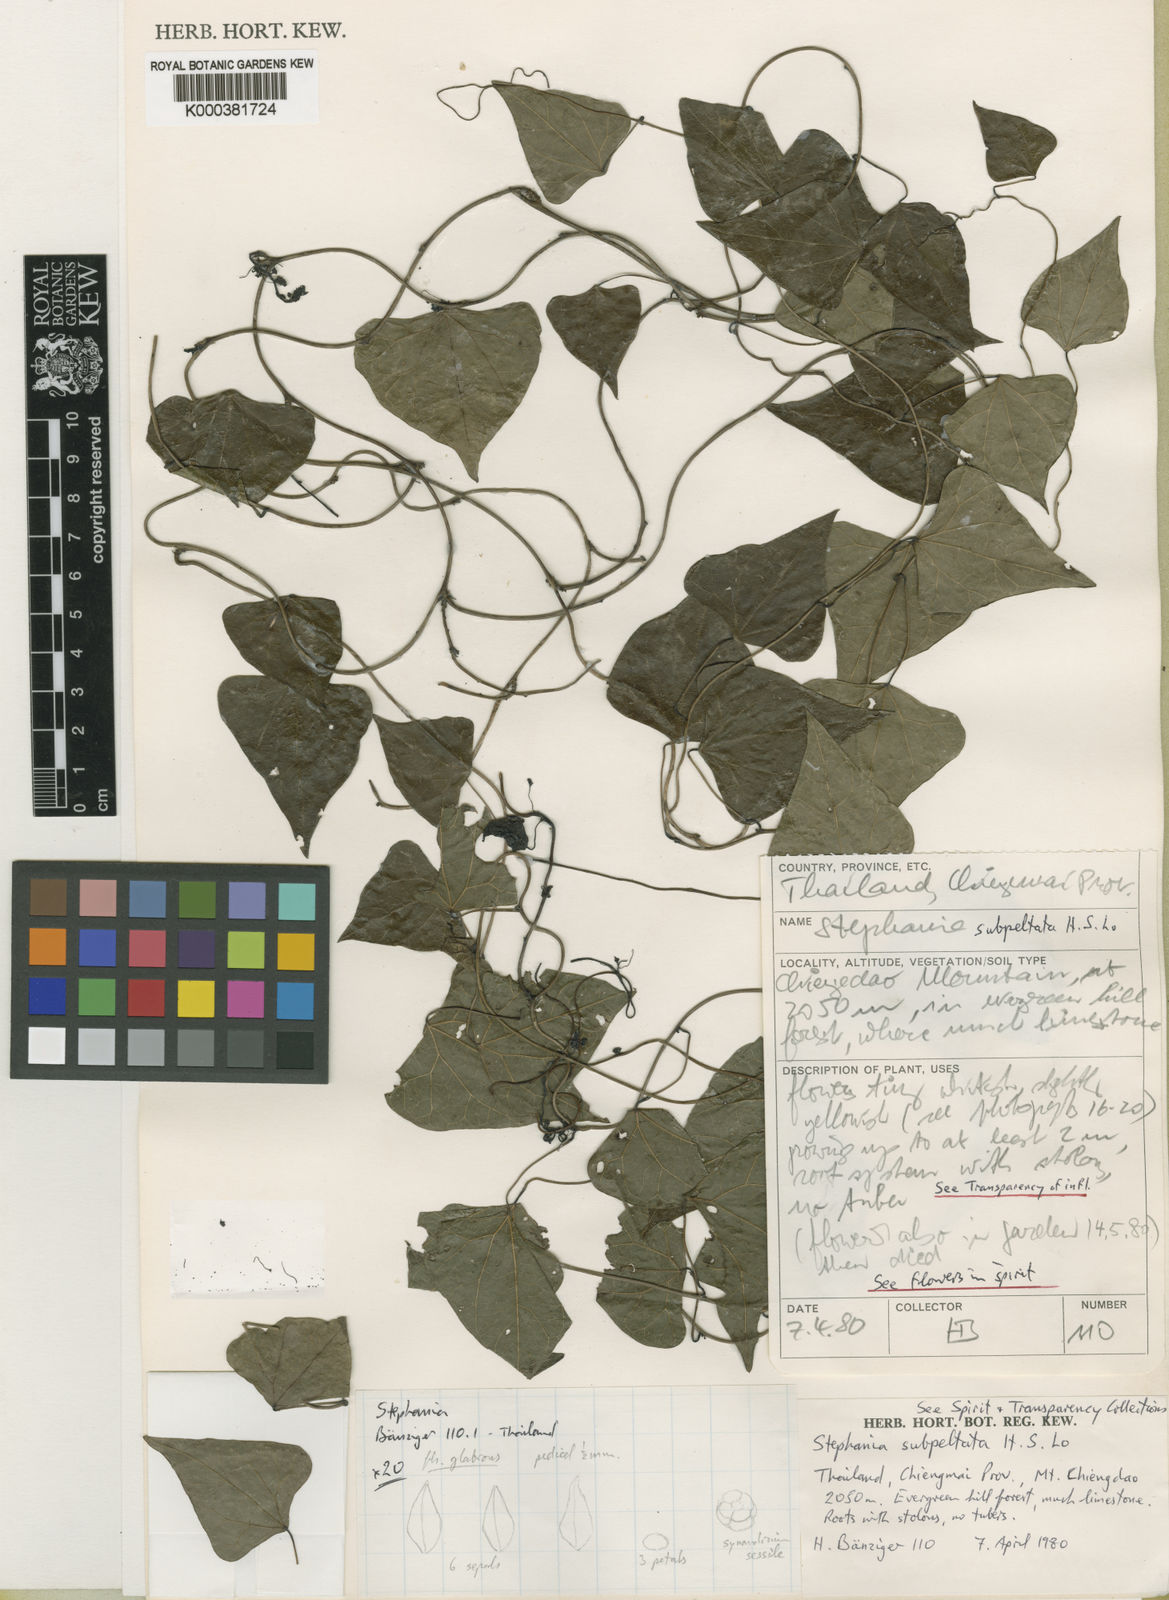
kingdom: Plantae
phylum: Tracheophyta
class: Magnoliopsida
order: Ranunculales
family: Menispermaceae
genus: Stephania
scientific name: Stephania subpeltata
